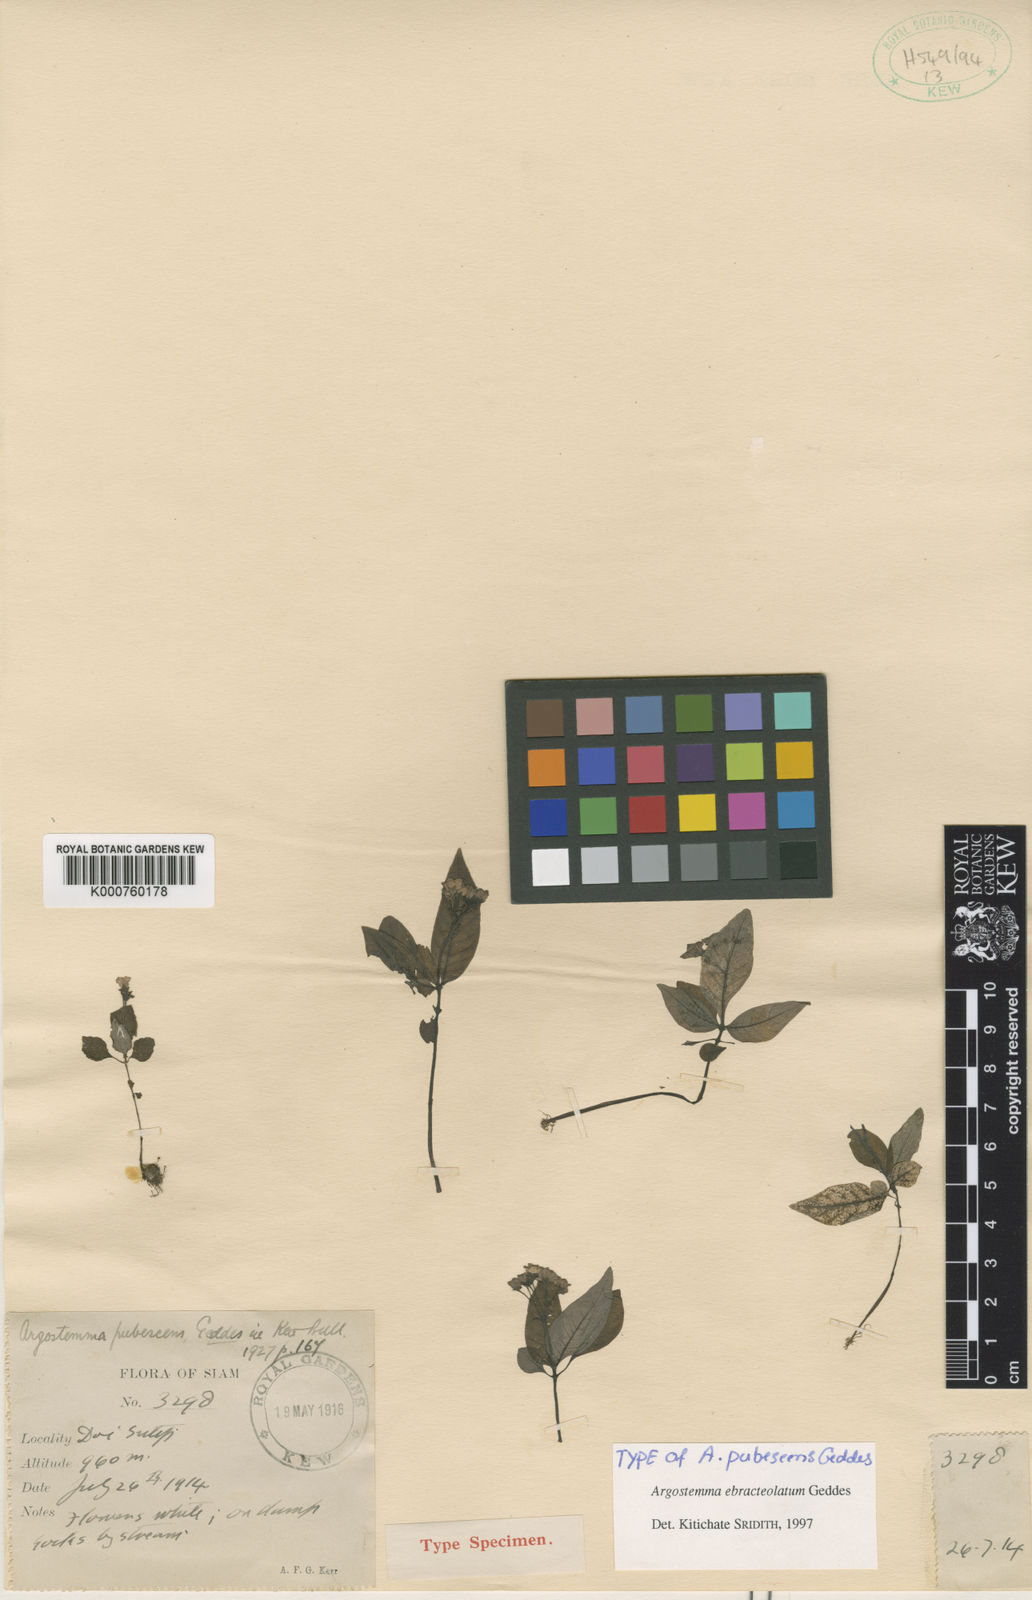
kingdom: Plantae
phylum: Tracheophyta
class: Magnoliopsida
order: Gentianales
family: Rubiaceae
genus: Argostemma
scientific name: Argostemma ebracteolatum
